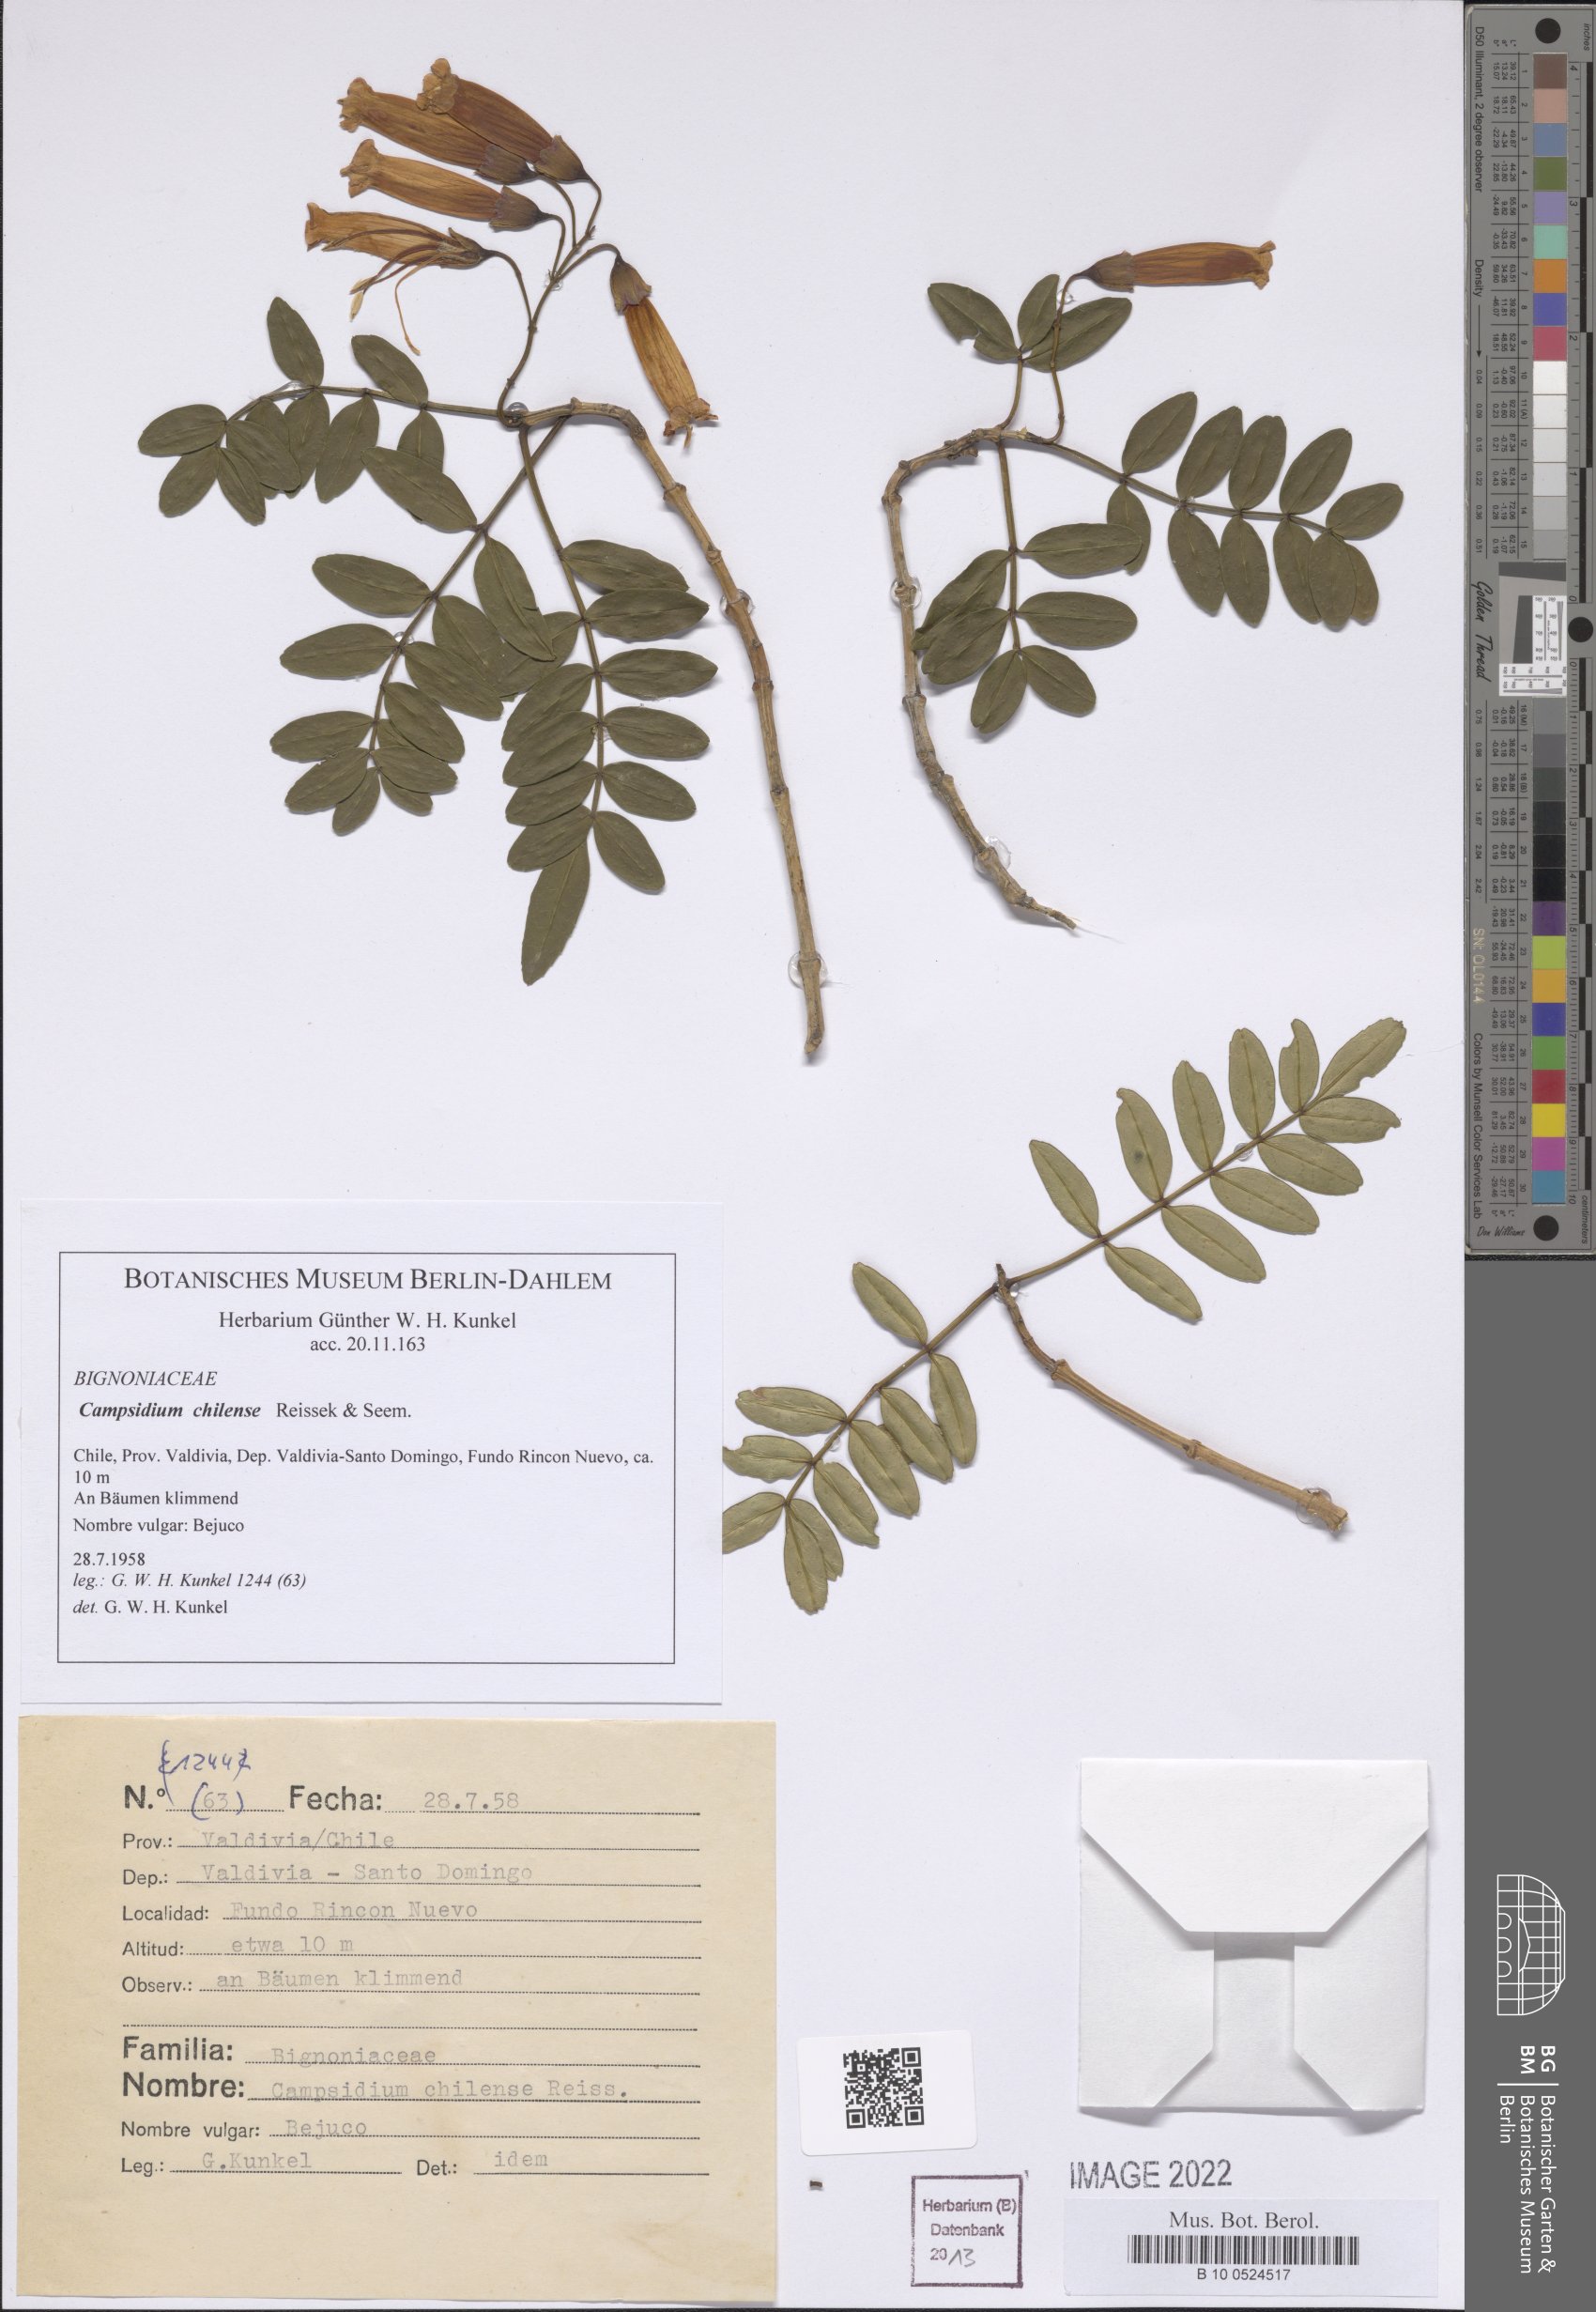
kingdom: Plantae
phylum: Tracheophyta
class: Magnoliopsida
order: Lamiales
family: Bignoniaceae
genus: Campsidium
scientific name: Campsidium valdivianum
